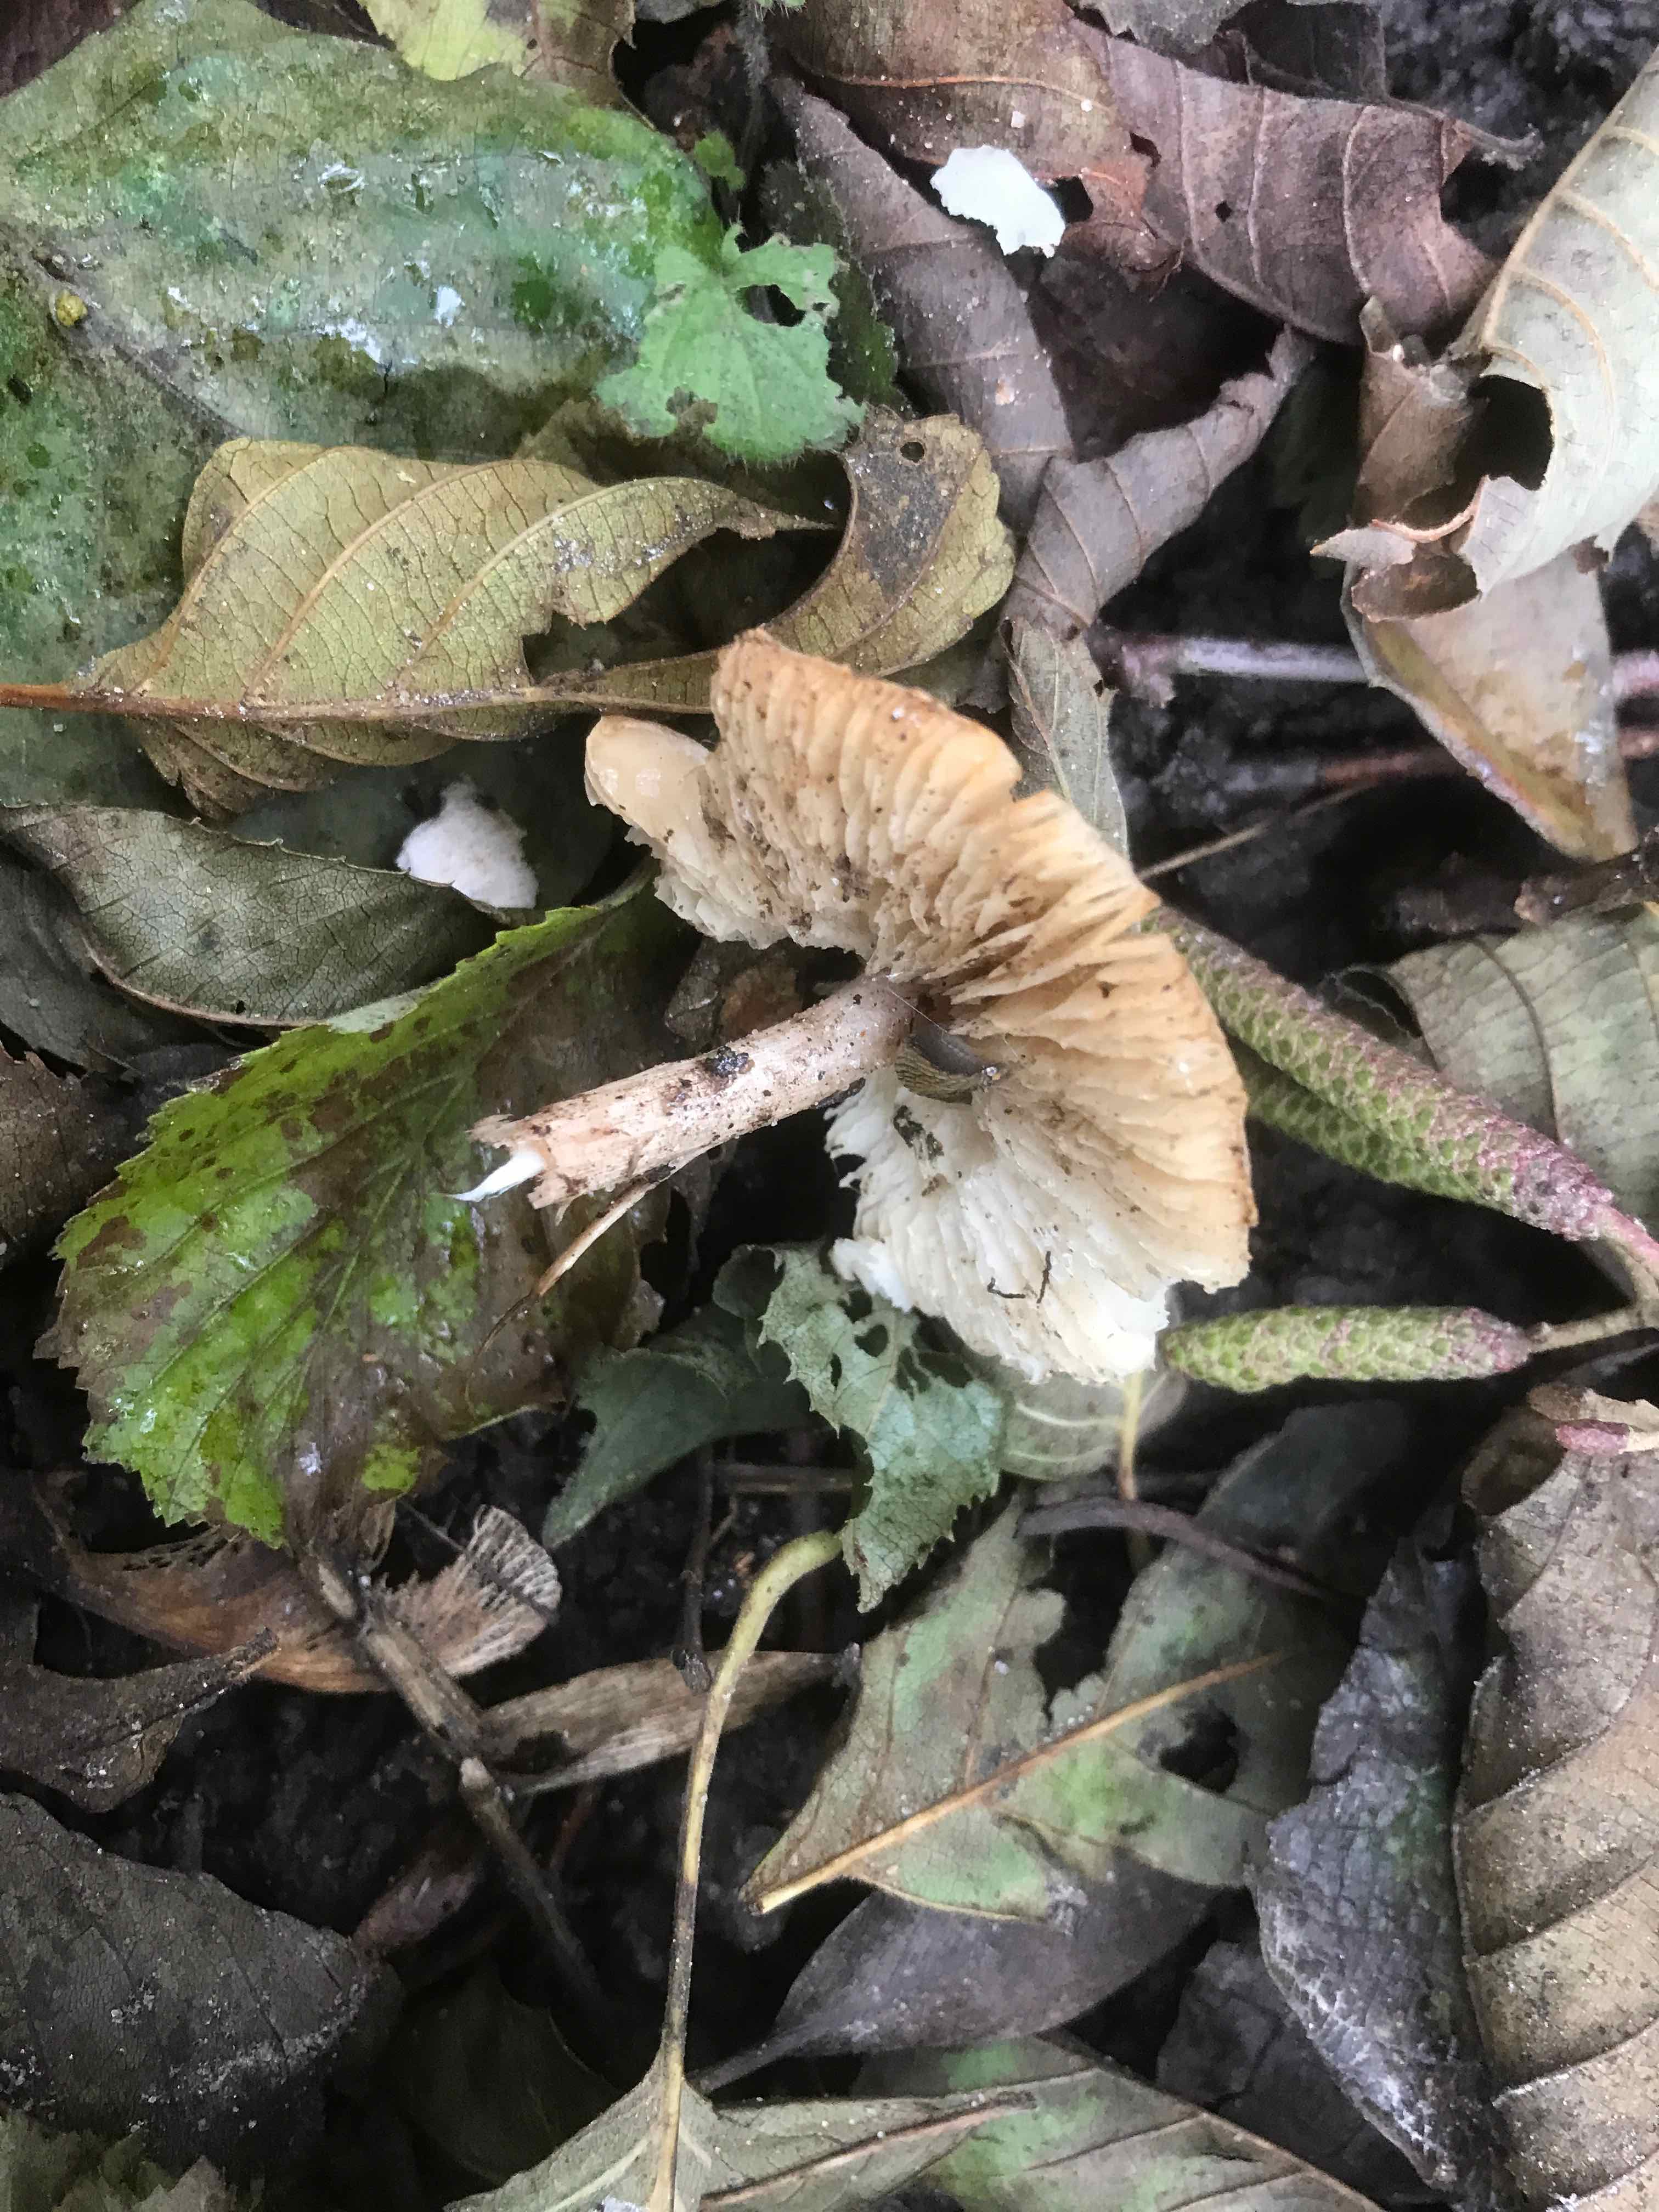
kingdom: Fungi
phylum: Basidiomycota
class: Agaricomycetes
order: Agaricales
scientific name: Agaricales
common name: champignonordenen
